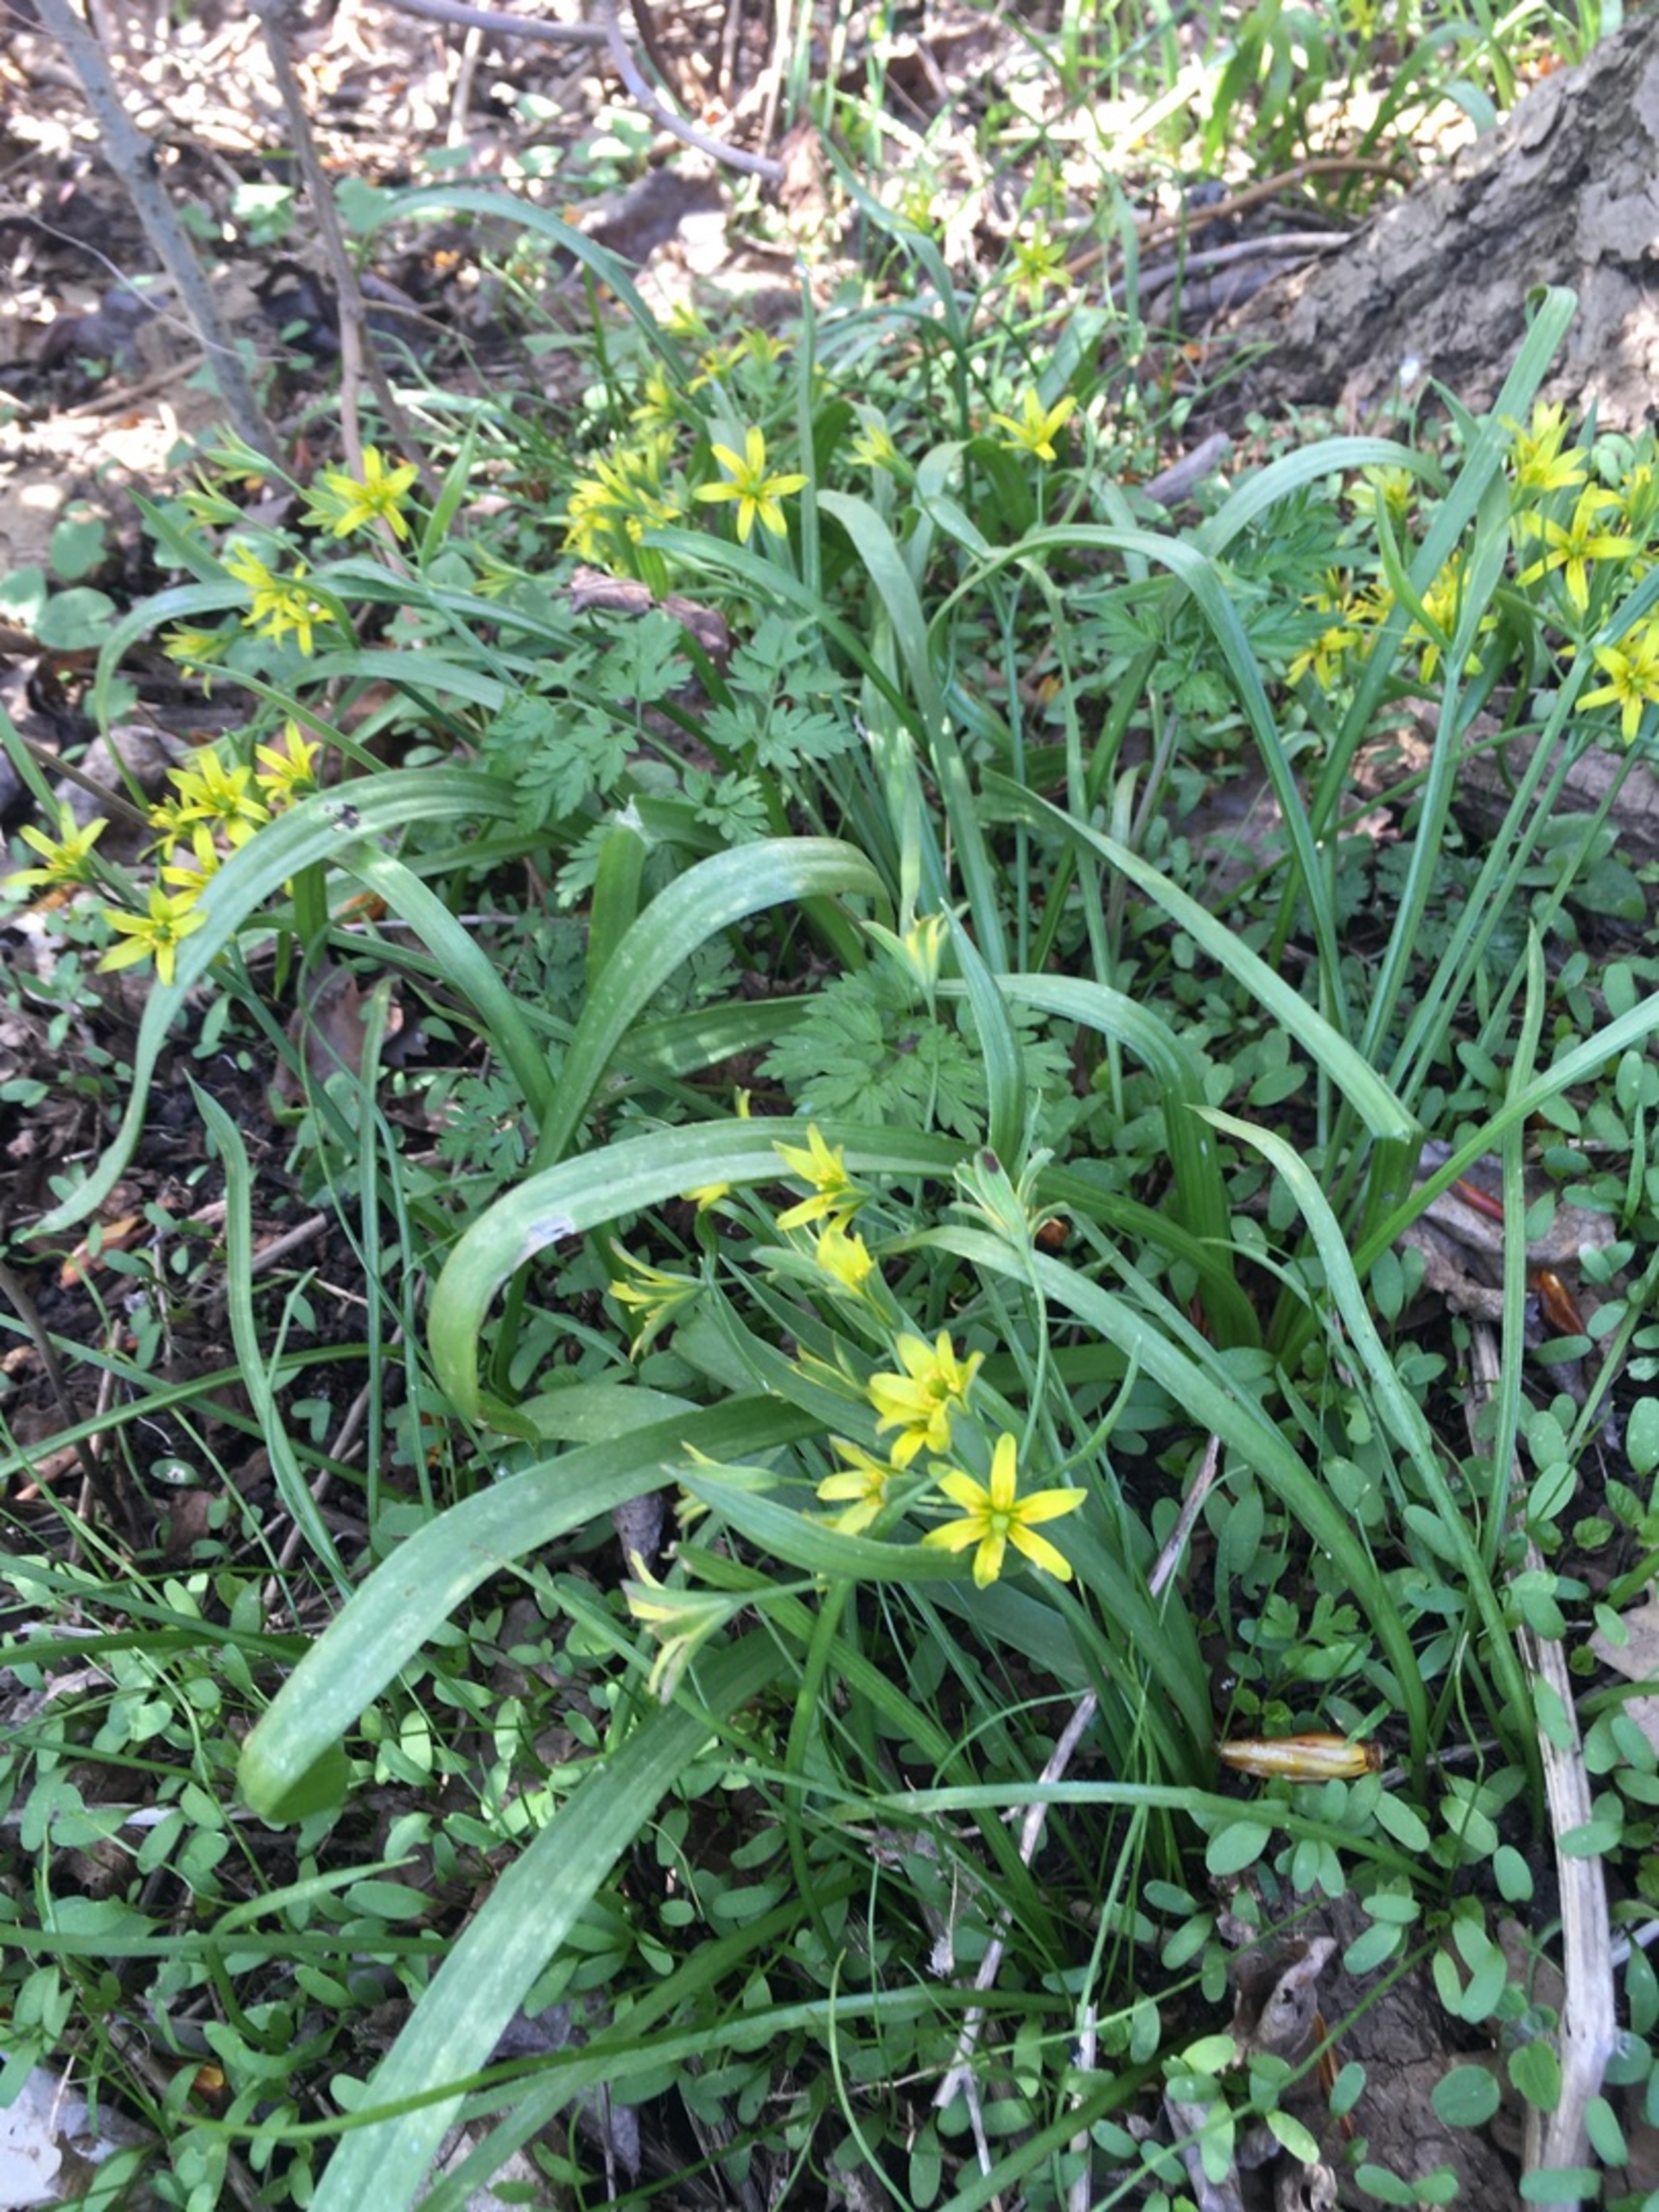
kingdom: Plantae
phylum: Tracheophyta
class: Liliopsida
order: Liliales
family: Liliaceae
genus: Gagea
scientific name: Gagea lutea
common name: Almindelig guldstjerne
